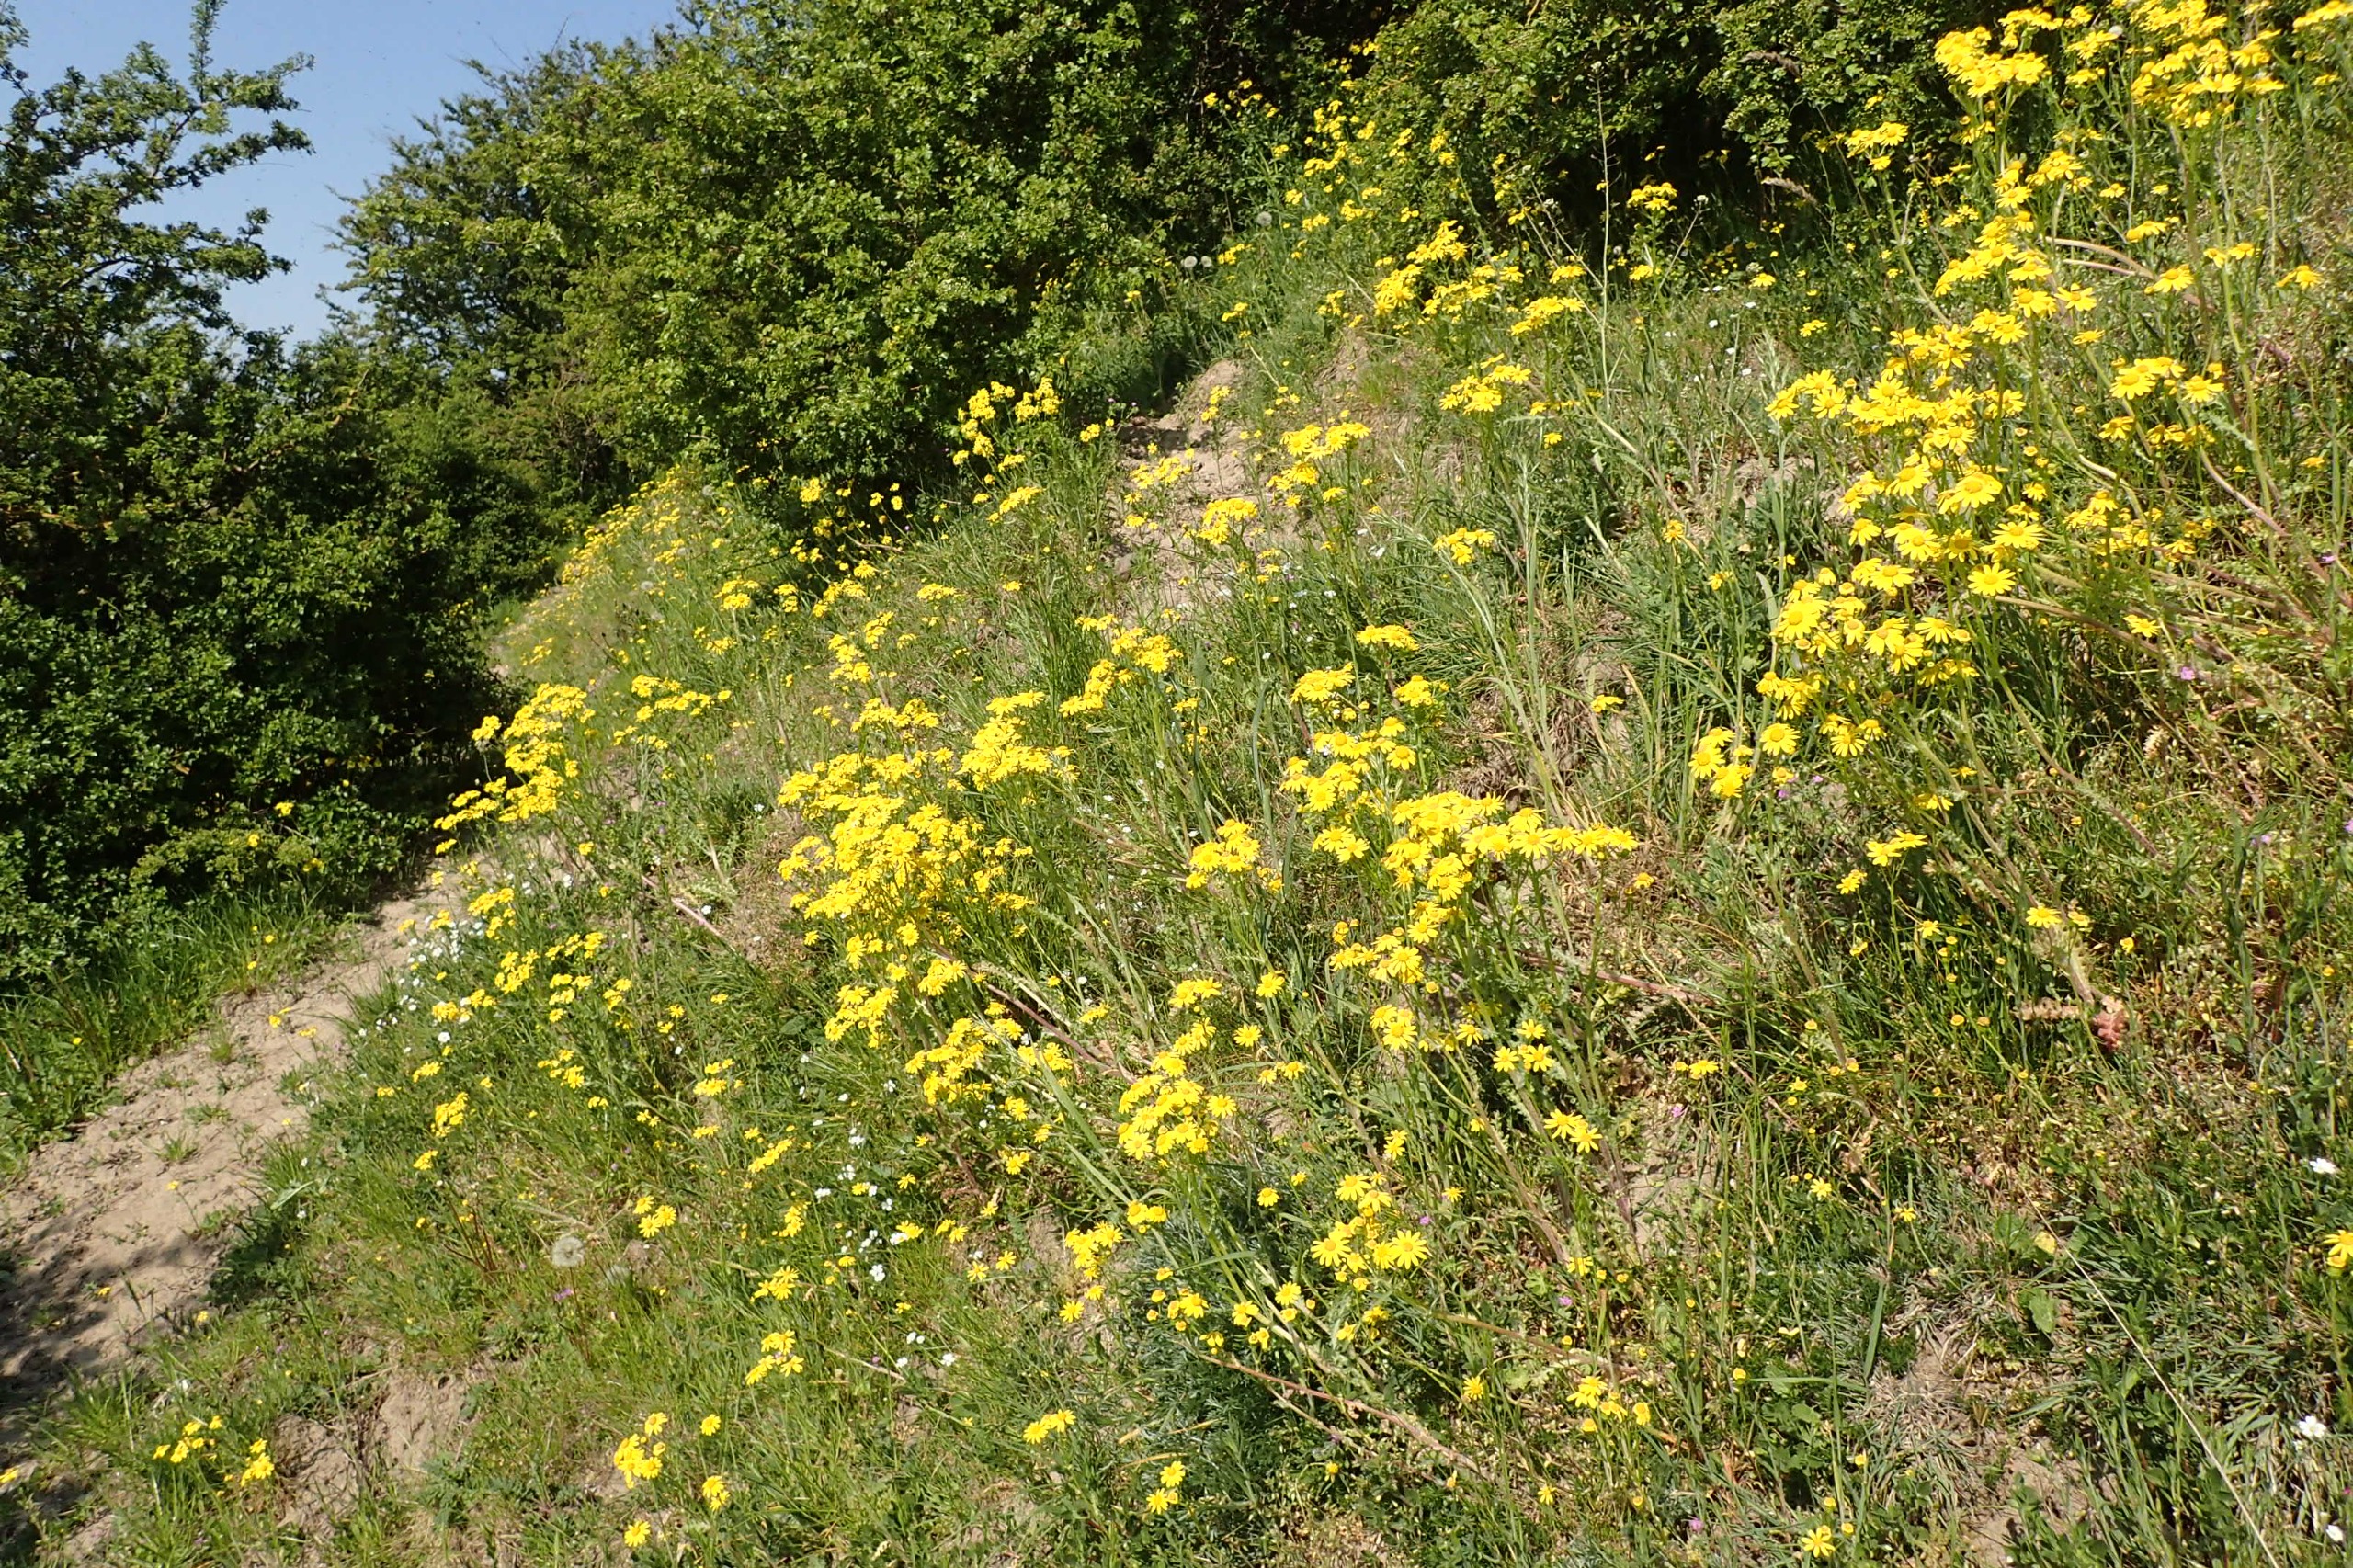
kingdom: Plantae
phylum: Tracheophyta
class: Magnoliopsida
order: Asterales
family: Asteraceae
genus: Senecio
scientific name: Senecio leucanthemifolius
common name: Vår-brandbæger
